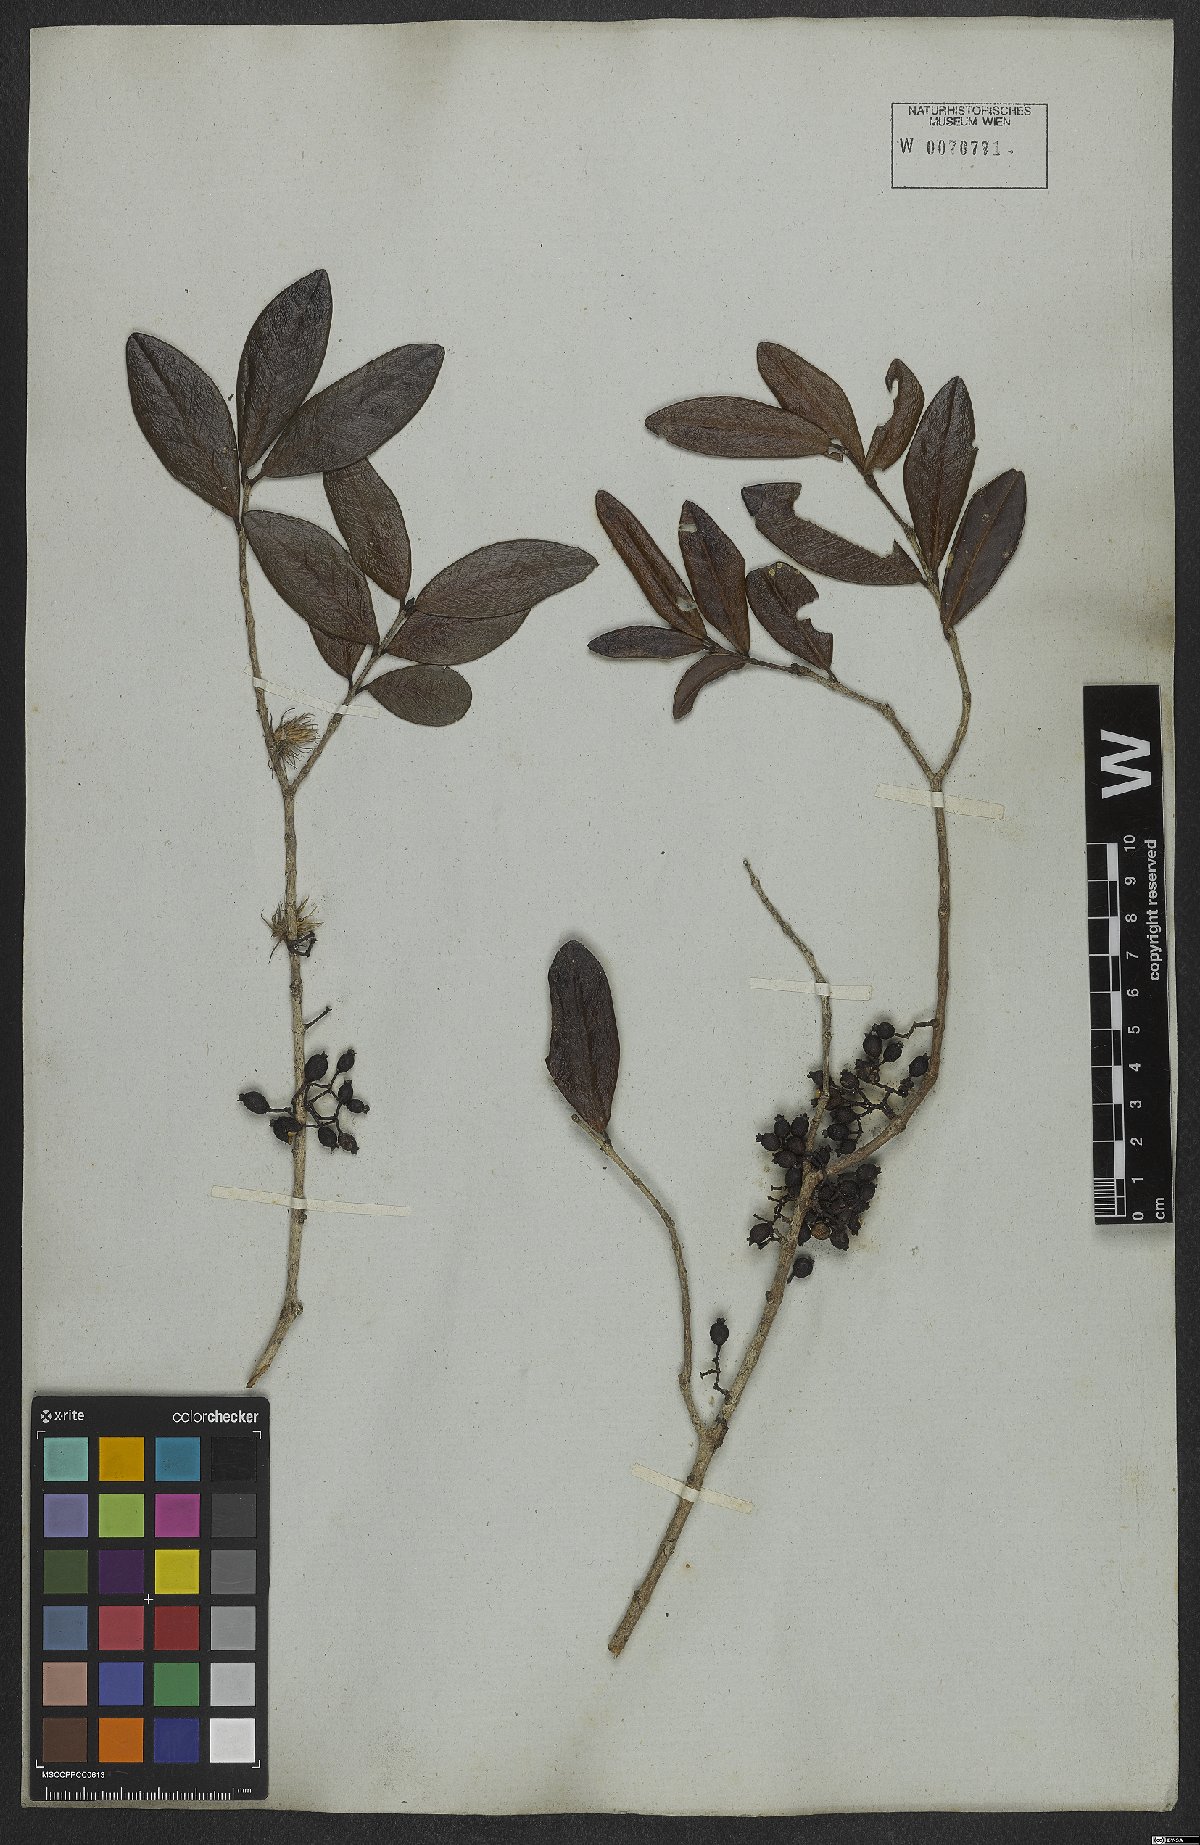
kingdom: Plantae
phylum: Tracheophyta
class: Magnoliopsida
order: Myrtales
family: Myrtaceae
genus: Myrrhinium
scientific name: Myrrhinium atropurpureum
